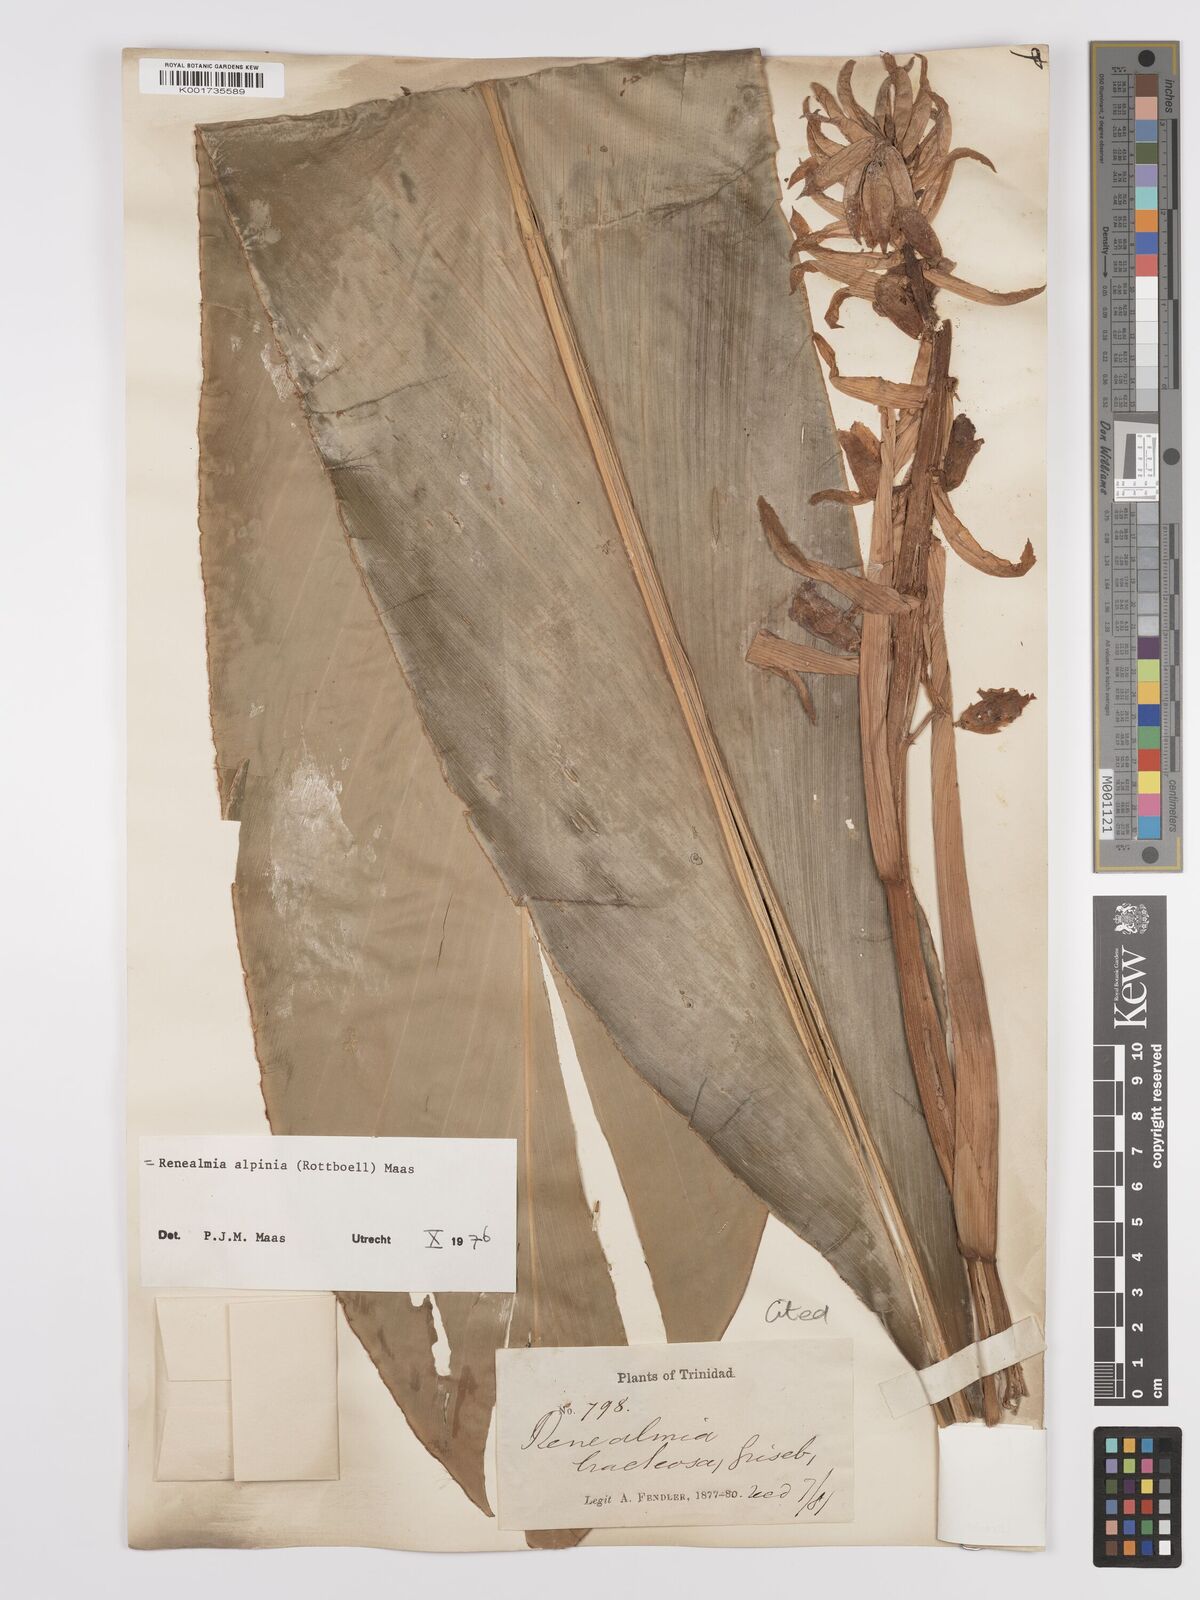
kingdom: Plantae
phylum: Tracheophyta
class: Liliopsida
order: Zingiberales
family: Zingiberaceae
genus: Renealmia
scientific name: Renealmia alpinia
